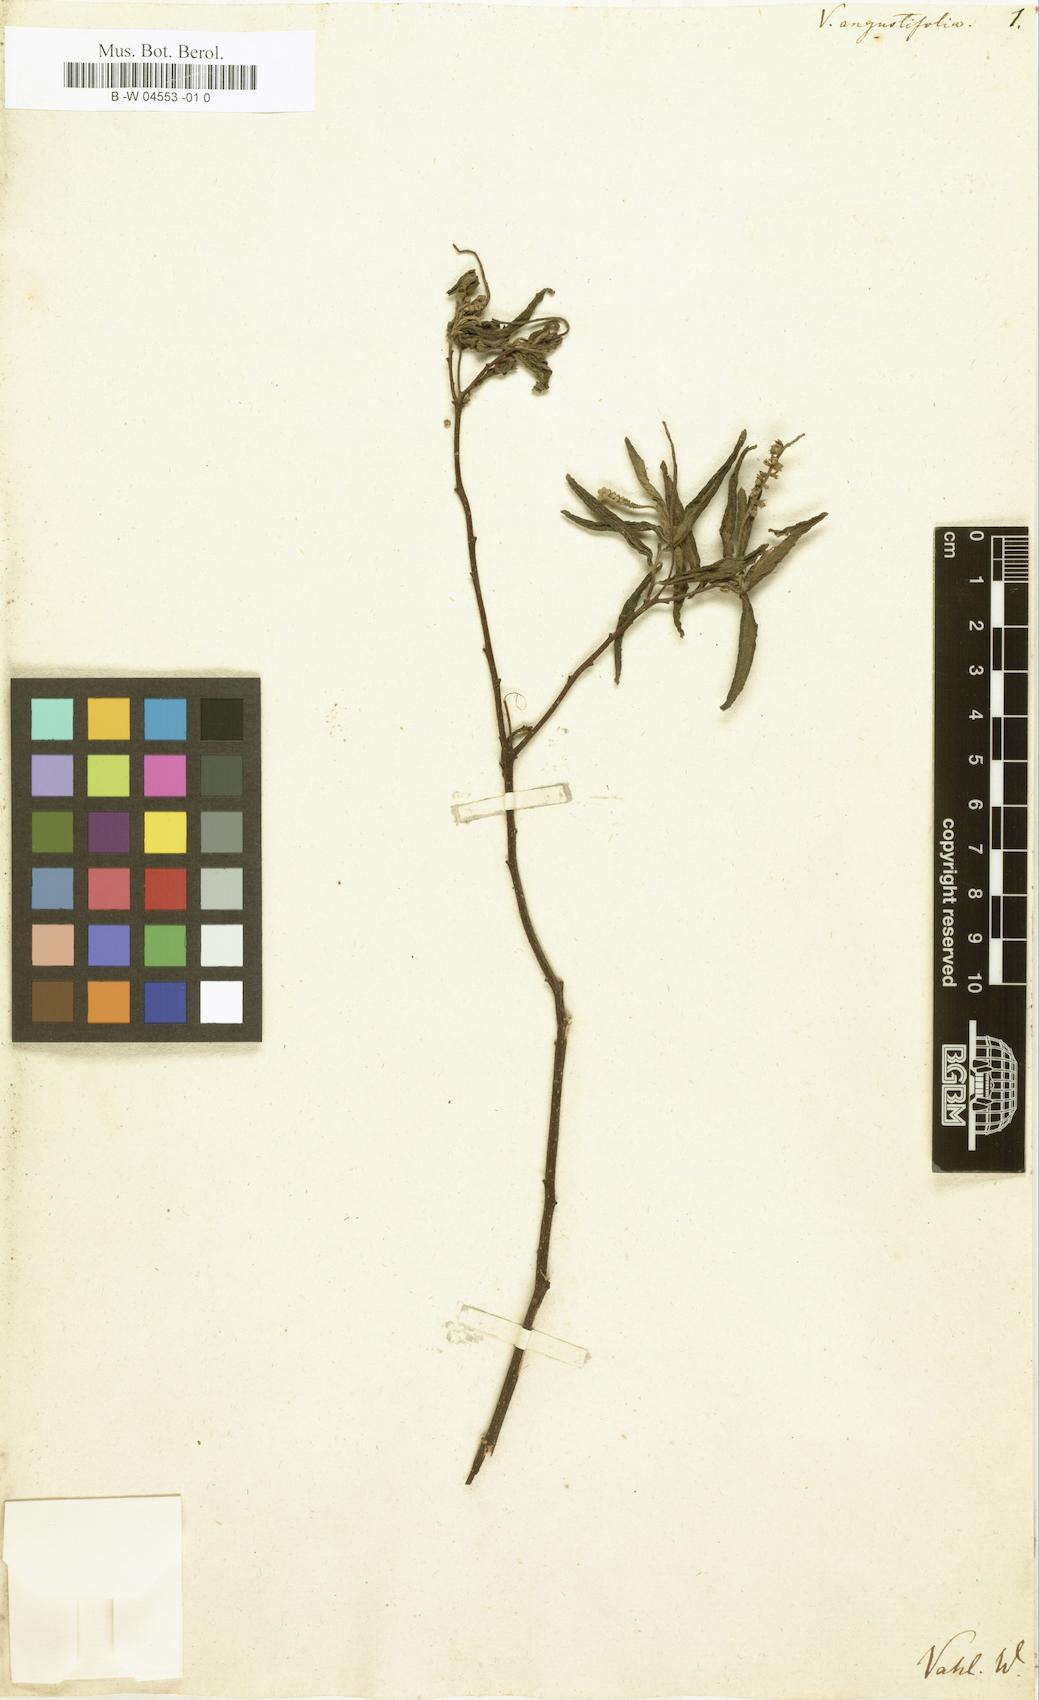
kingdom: Plantae
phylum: Tracheophyta
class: Magnoliopsida
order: Boraginales
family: Cordiaceae
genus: Varronia
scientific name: Varronia curassavica
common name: Black sage
